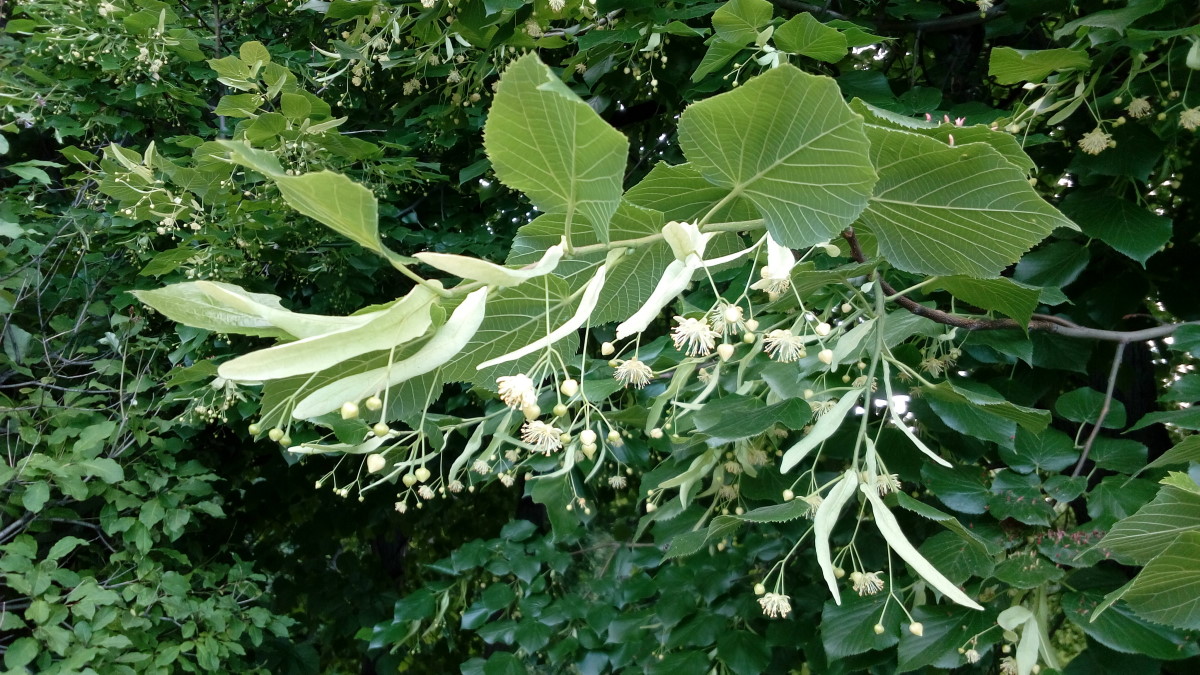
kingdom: Plantae
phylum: Tracheophyta
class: Magnoliopsida
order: Malvales
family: Malvaceae
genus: Tilia
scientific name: Tilia europaea
